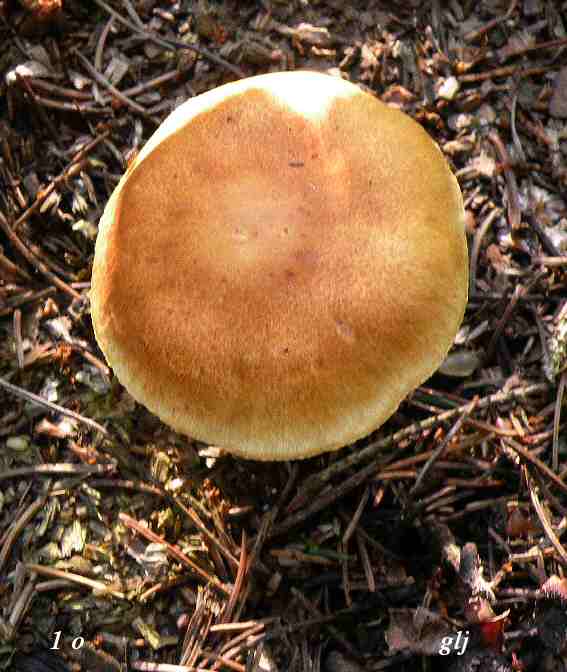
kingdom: Fungi
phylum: Basidiomycota
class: Agaricomycetes
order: Agaricales
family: Hymenogastraceae
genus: Gymnopilus
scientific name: Gymnopilus penetrans
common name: plettet flammehat
